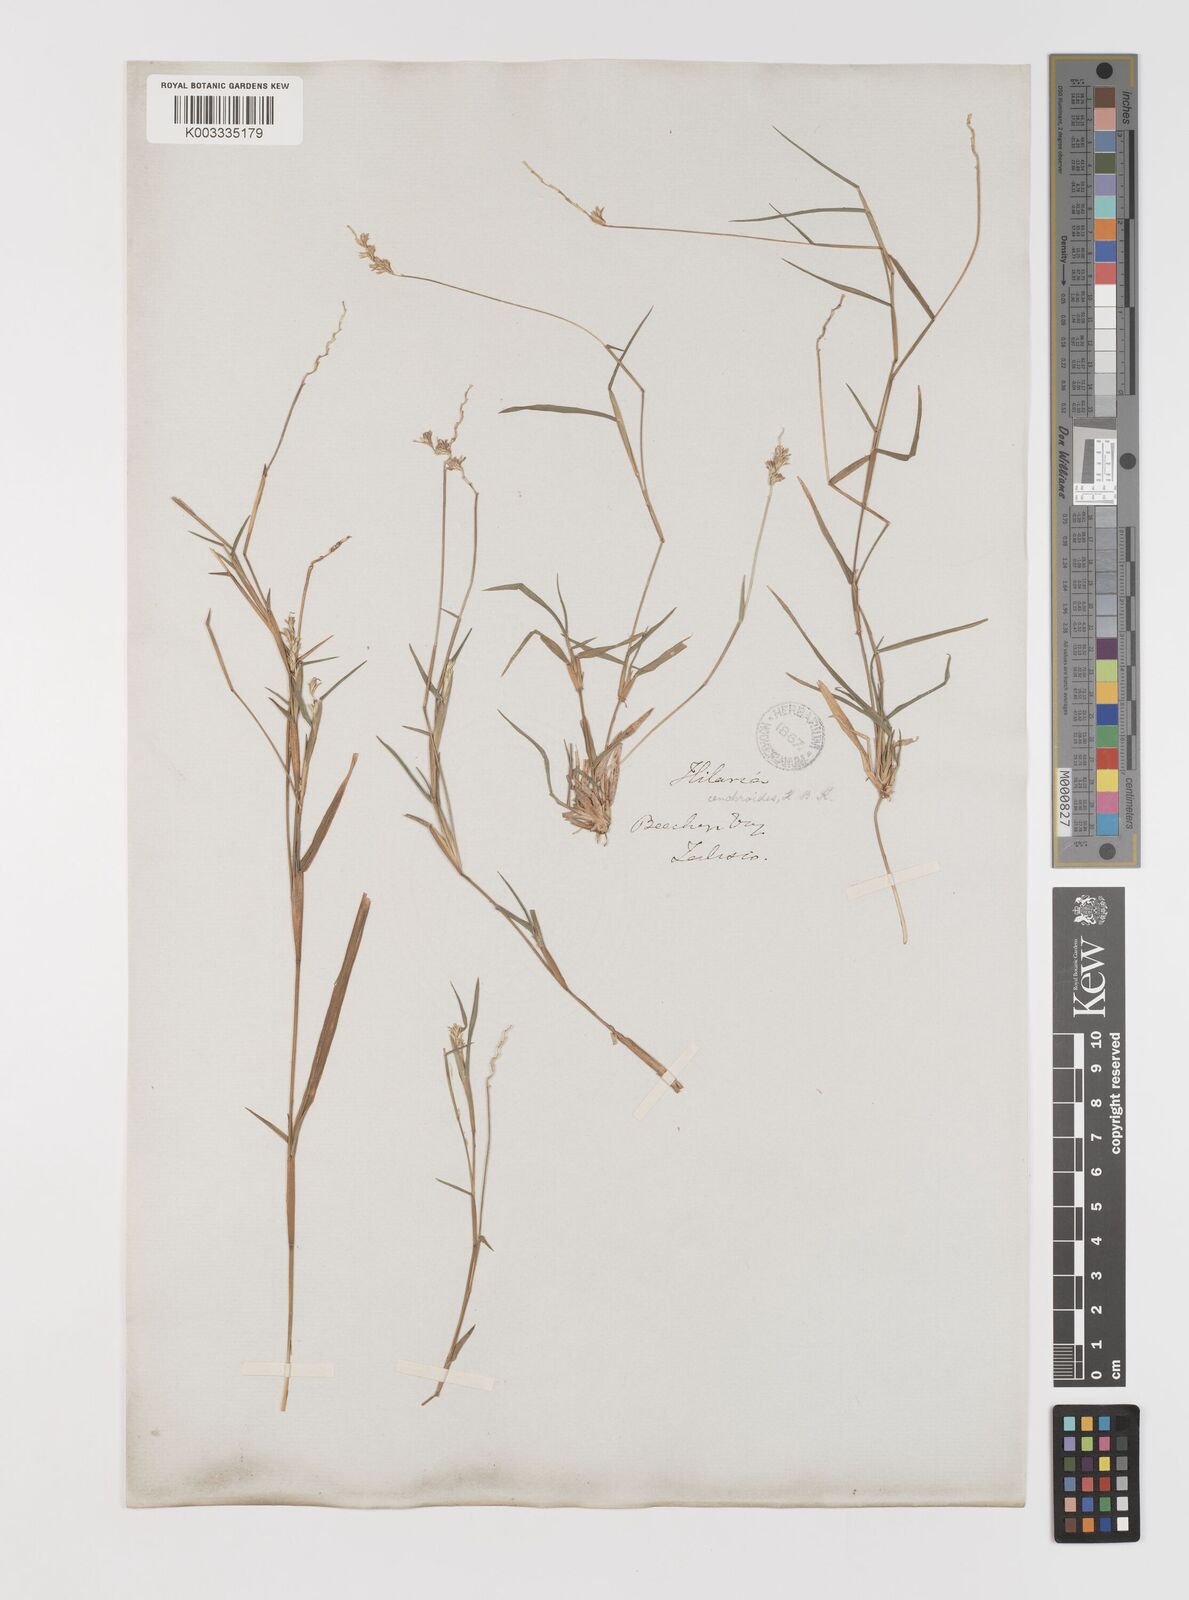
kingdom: Plantae
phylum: Tracheophyta
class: Liliopsida
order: Poales
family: Poaceae
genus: Hilaria
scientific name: Hilaria ciliata
